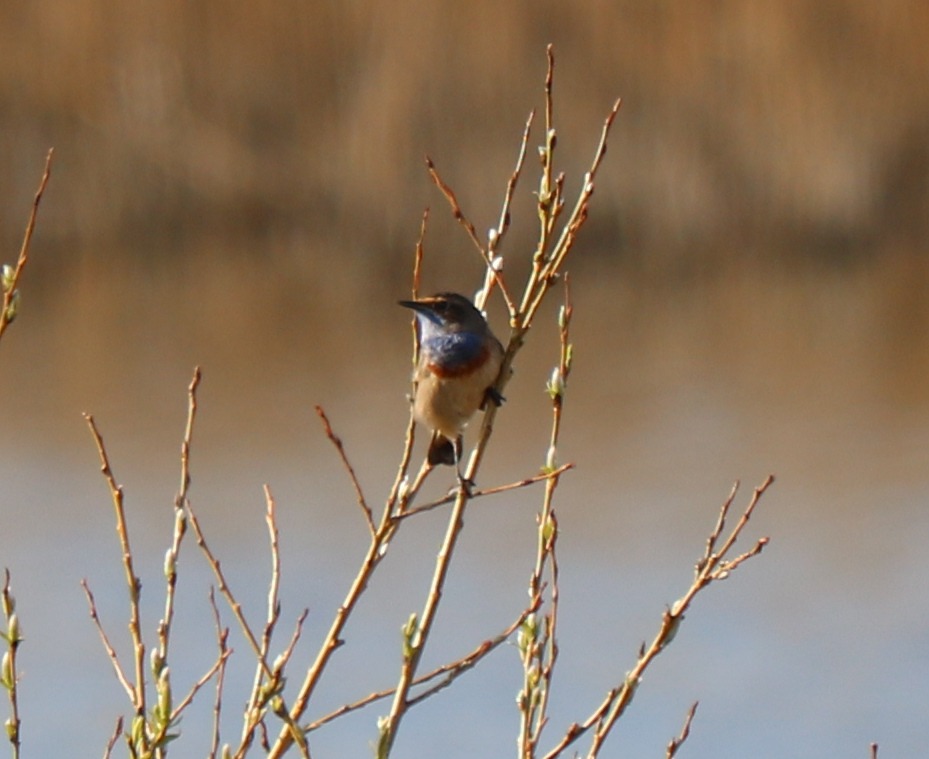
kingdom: Animalia
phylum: Chordata
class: Aves
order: Passeriformes
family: Muscicapidae
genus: Luscinia
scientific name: Luscinia svecica
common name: Blåhals
